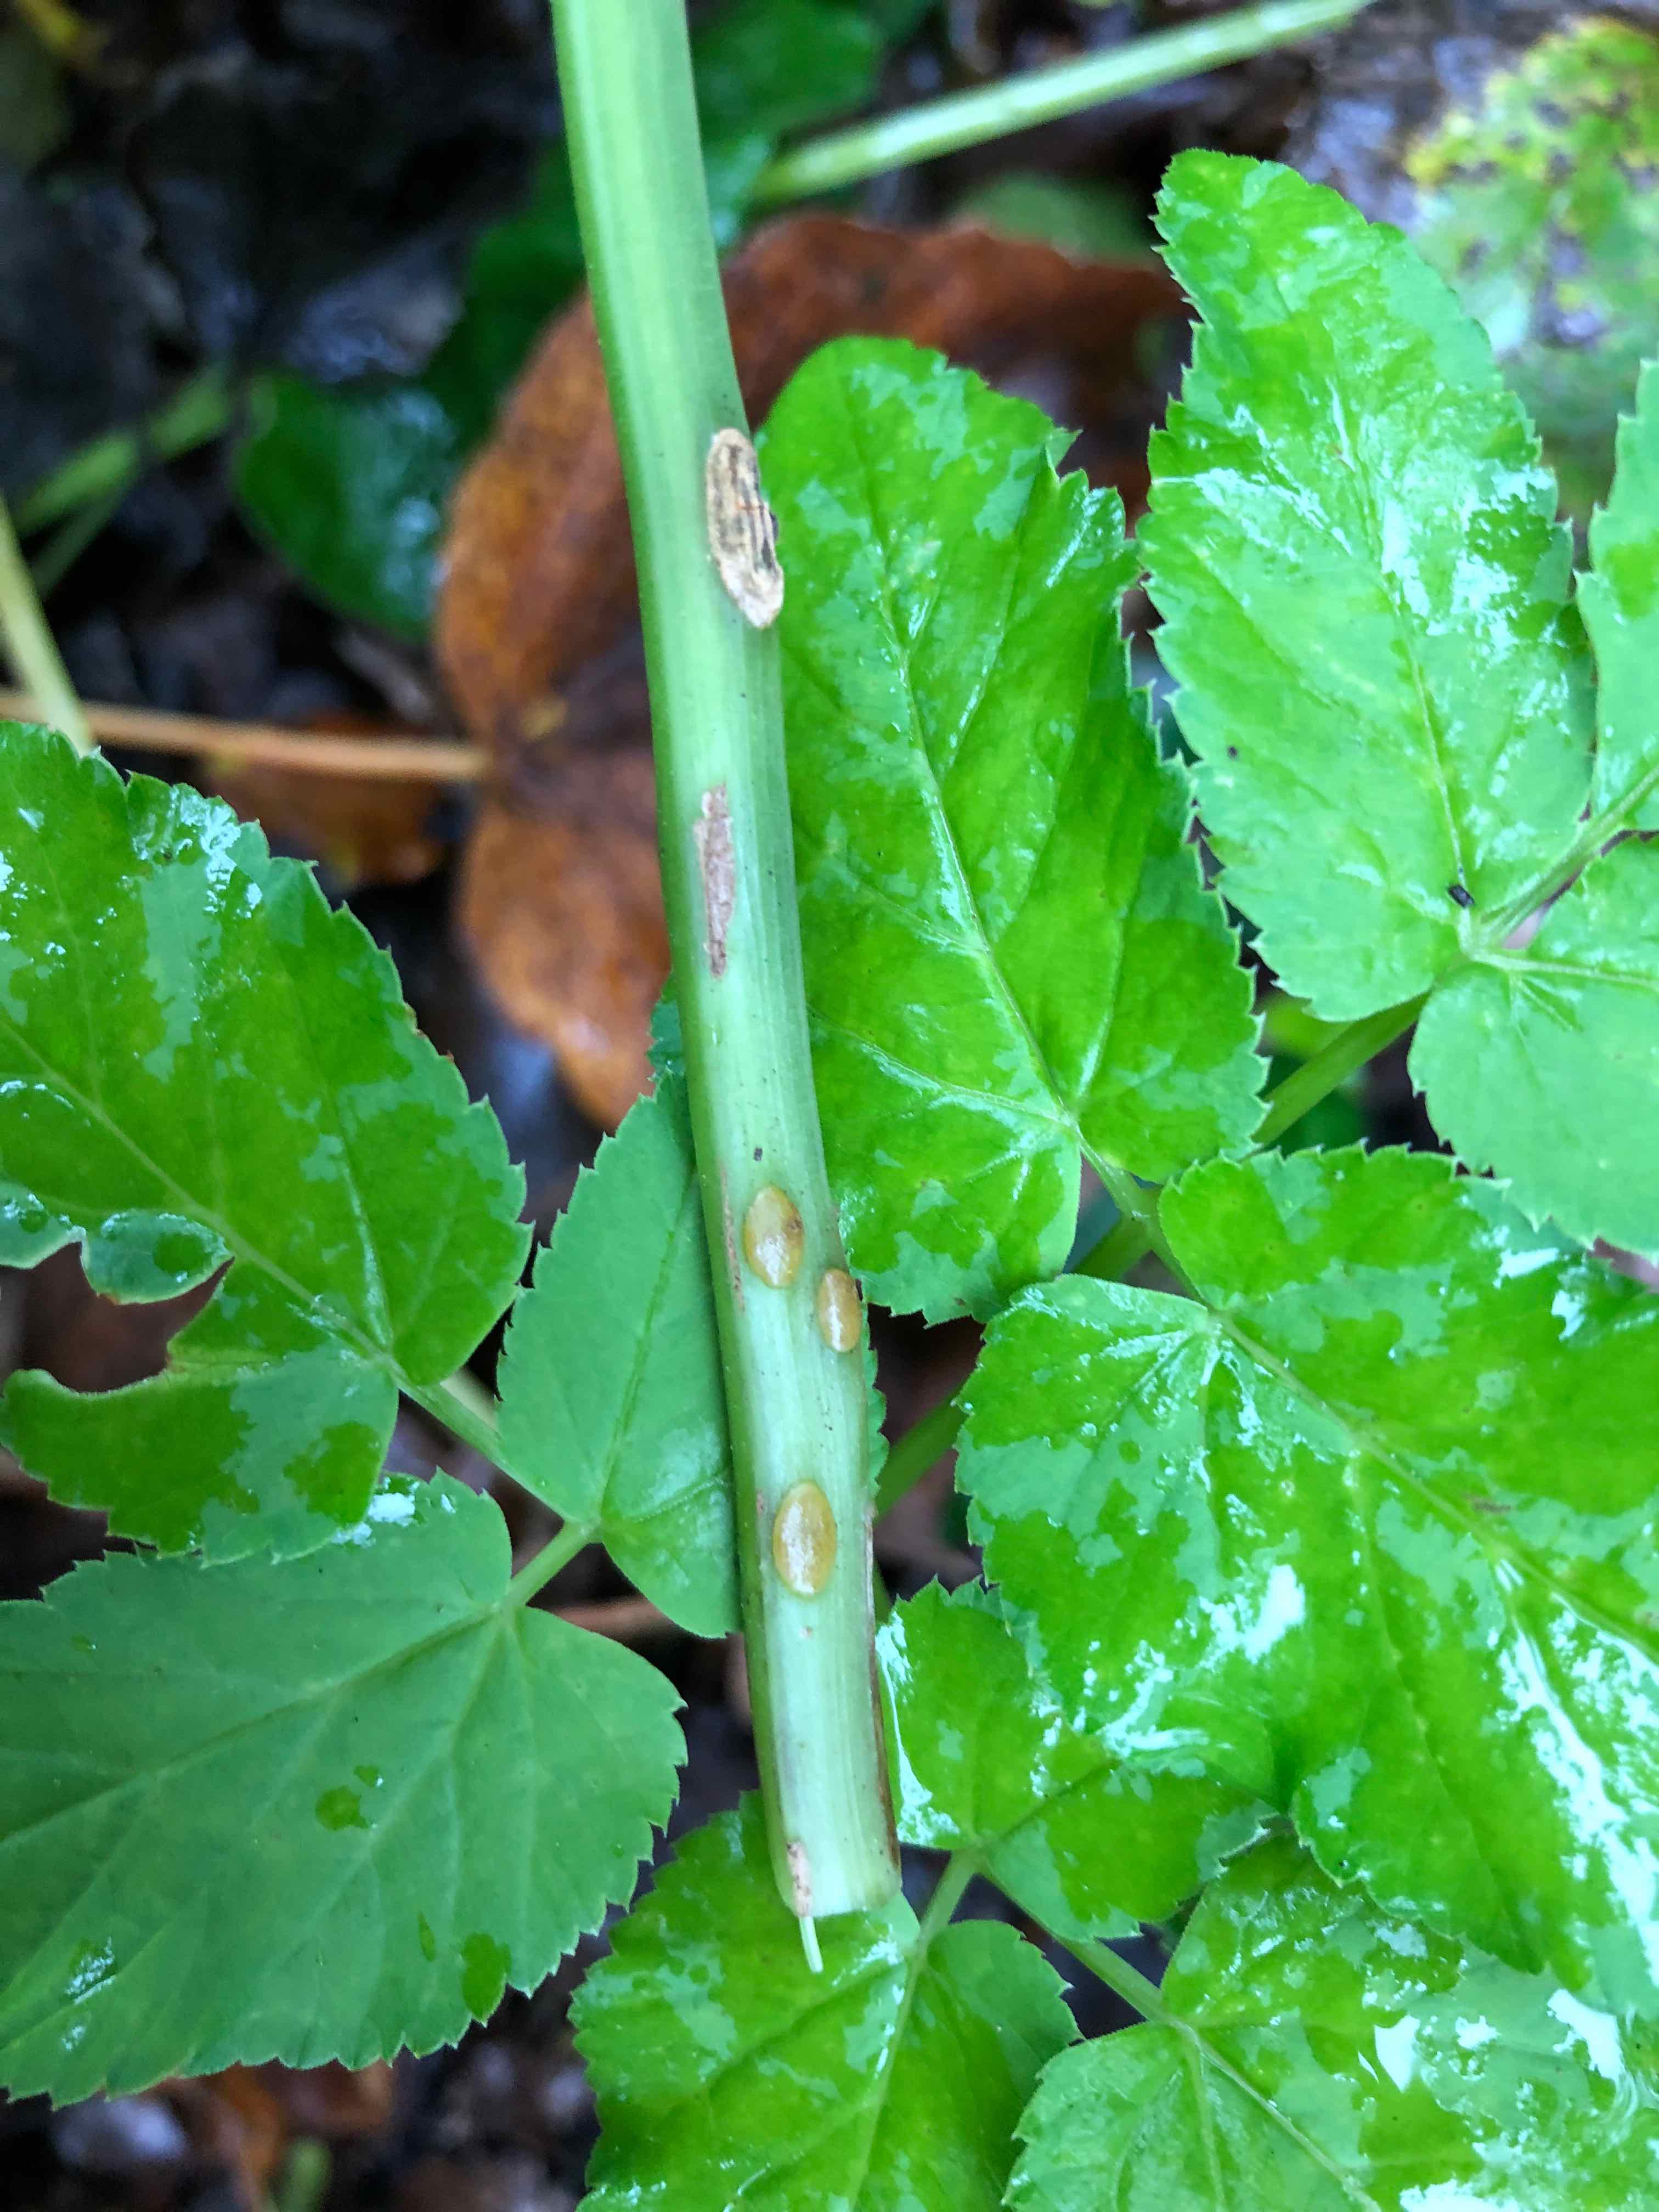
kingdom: Fungi
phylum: Ascomycota
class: Taphrinomycetes
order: Taphrinales
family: Taphrinaceae
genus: Protomyces
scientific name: Protomyces macrosporus
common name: skvalderkål-vablesæk
